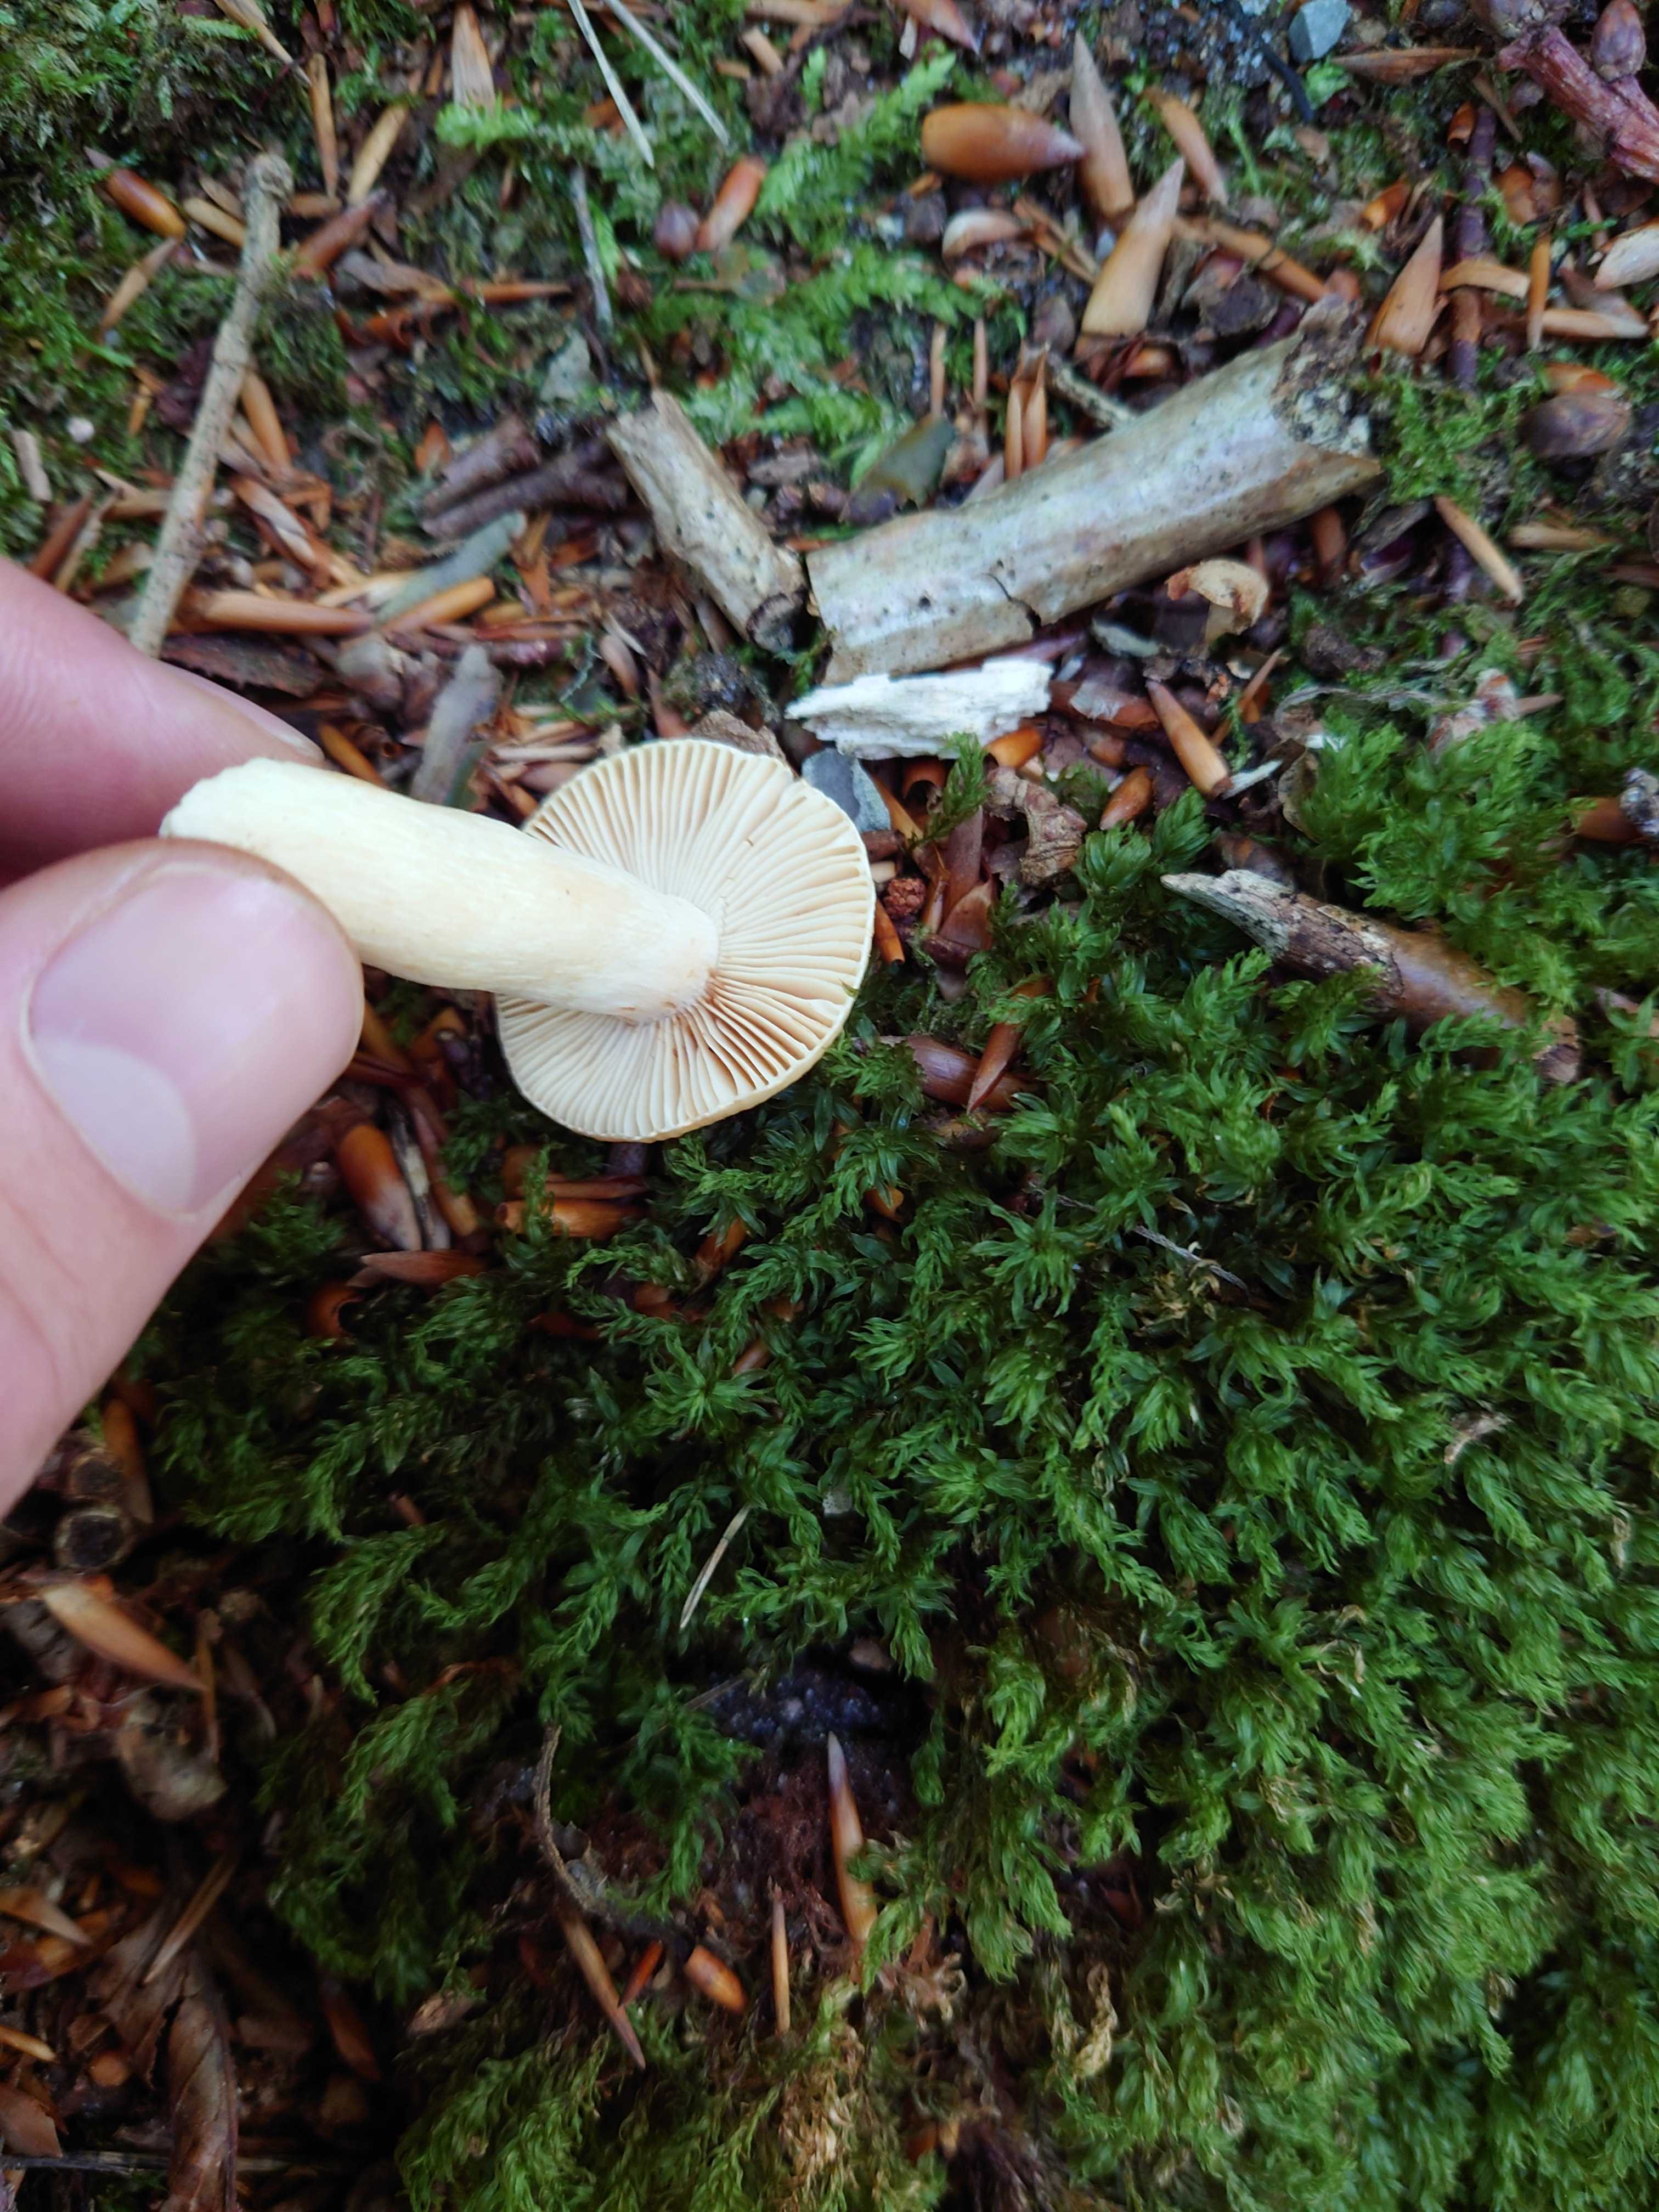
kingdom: Fungi
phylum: Basidiomycota
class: Agaricomycetes
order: Russulales
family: Russulaceae
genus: Russula
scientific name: Russula
